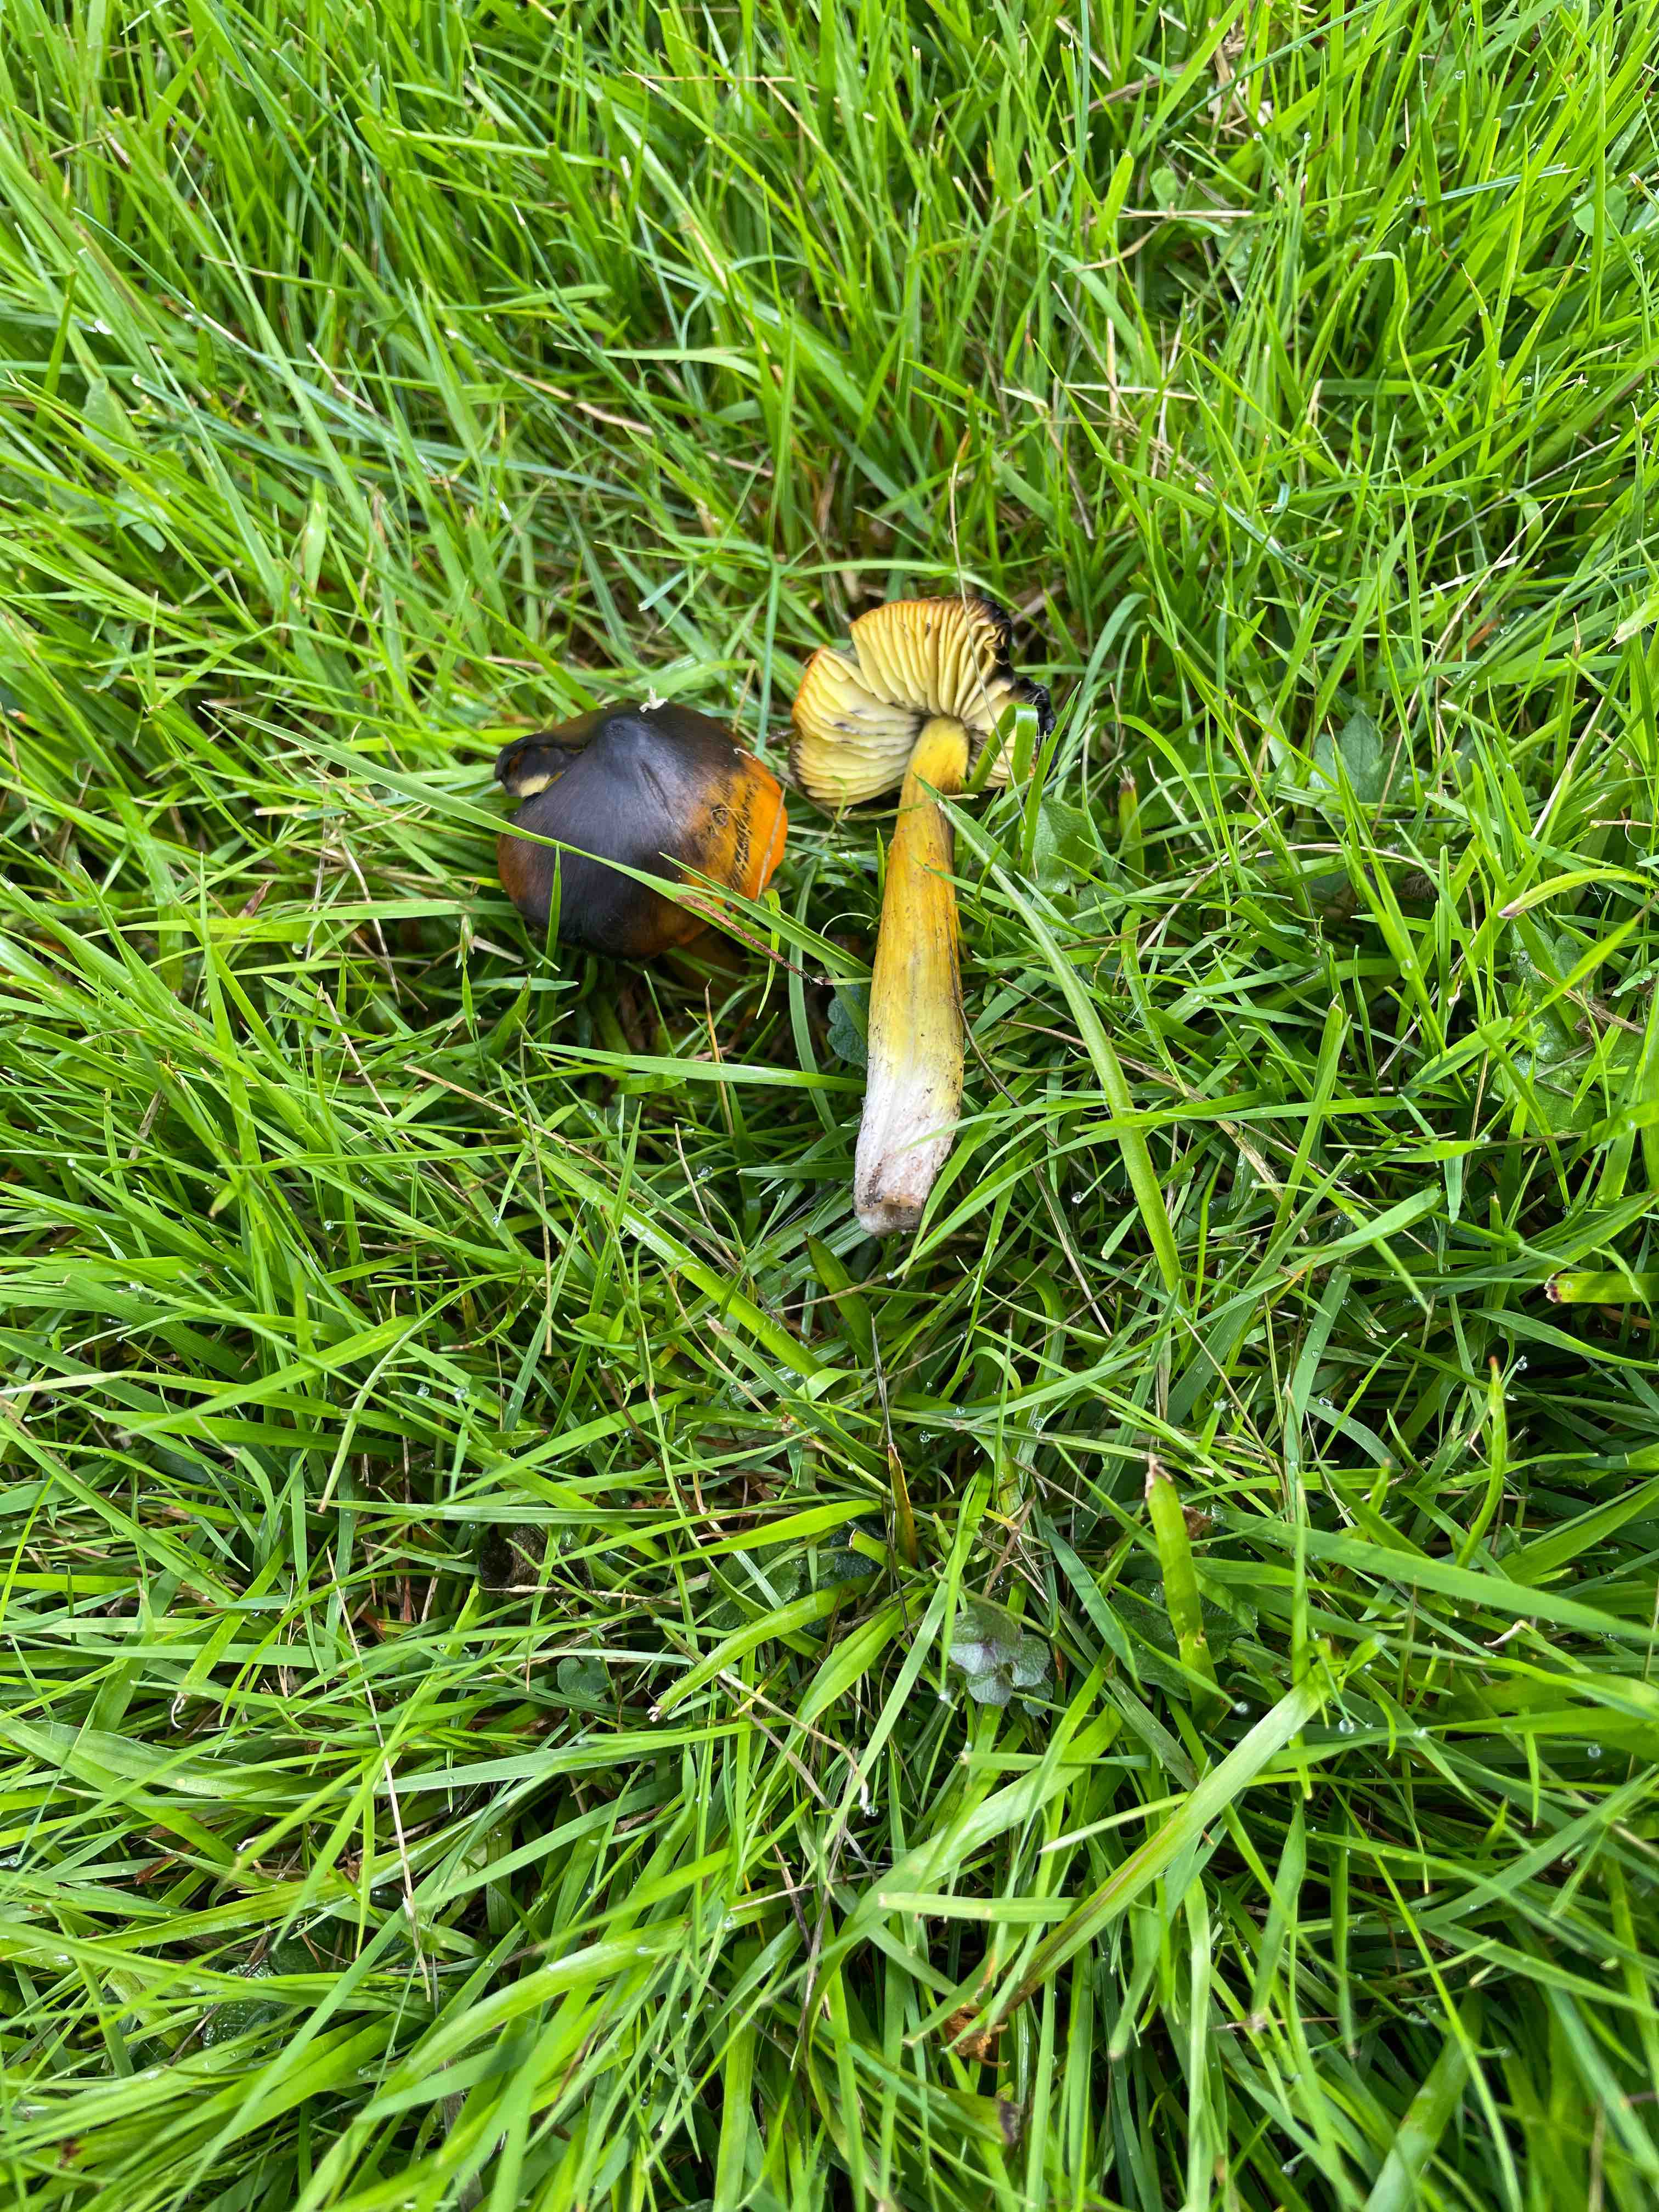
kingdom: Fungi
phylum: Basidiomycota
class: Agaricomycetes
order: Agaricales
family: Hygrophoraceae
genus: Hygrocybe
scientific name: Hygrocybe conica
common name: kegle-vokshat
